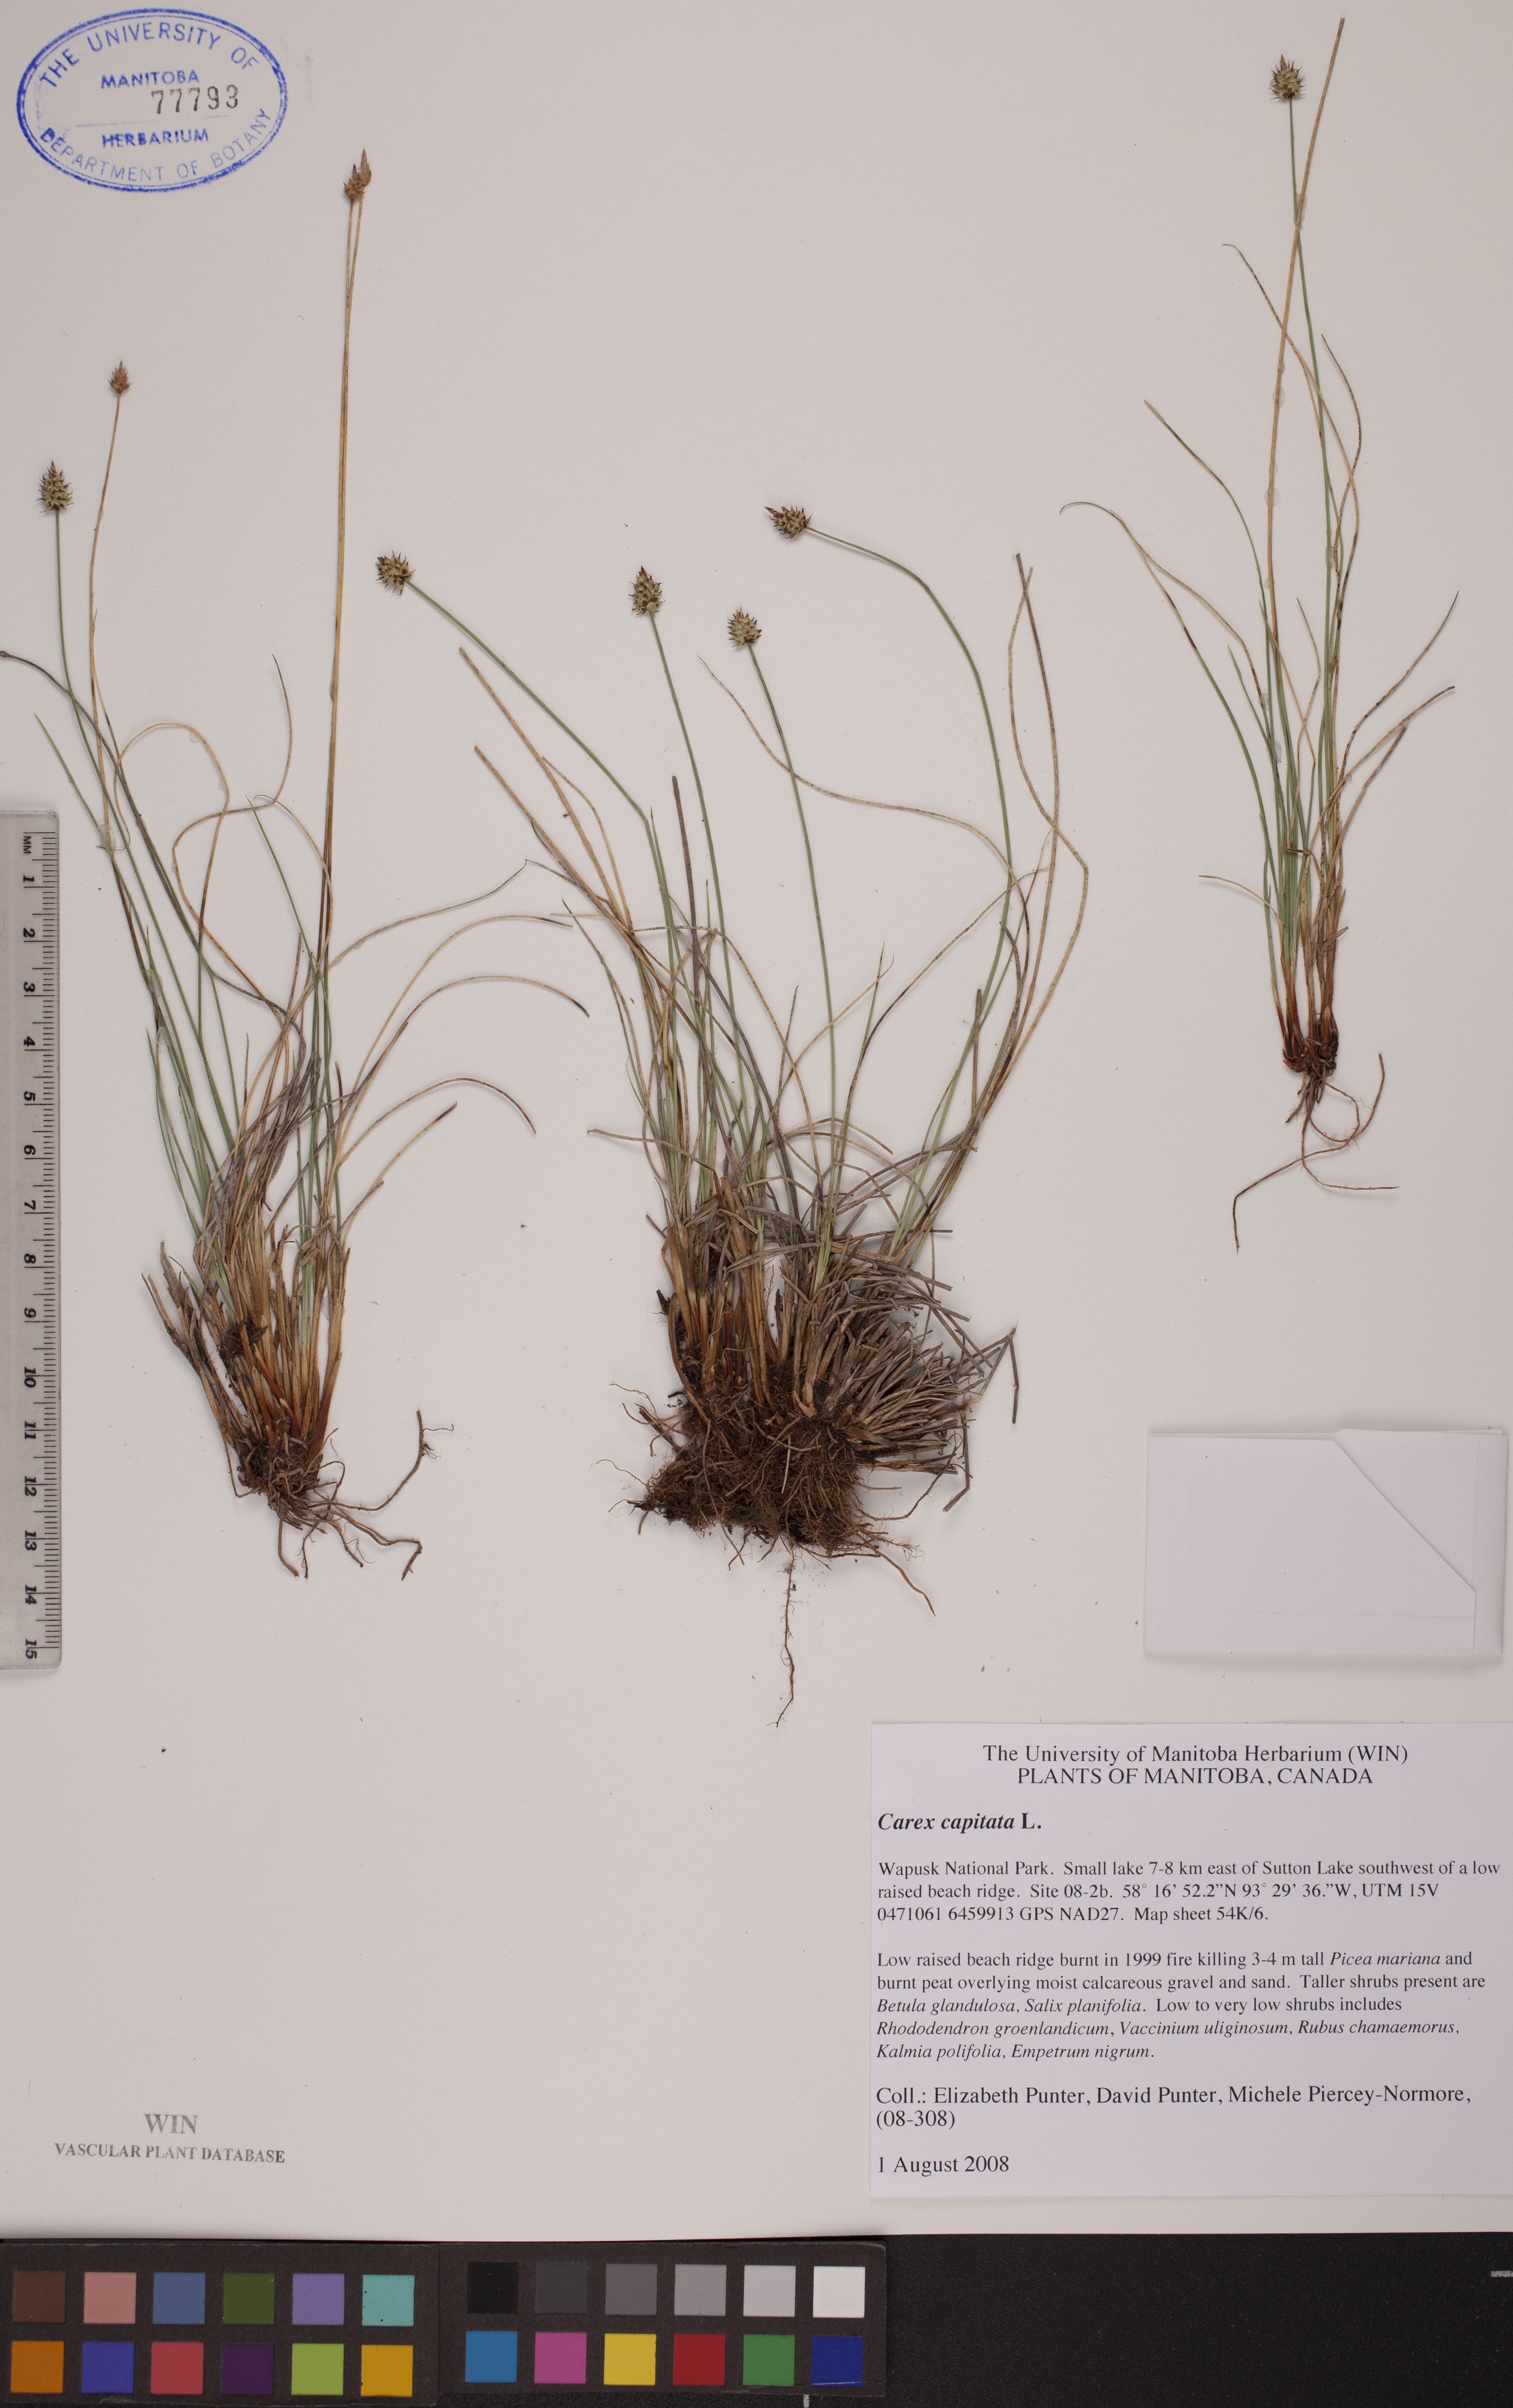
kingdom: Plantae
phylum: Tracheophyta
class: Liliopsida
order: Poales
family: Cyperaceae
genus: Carex
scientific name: Carex capitata
